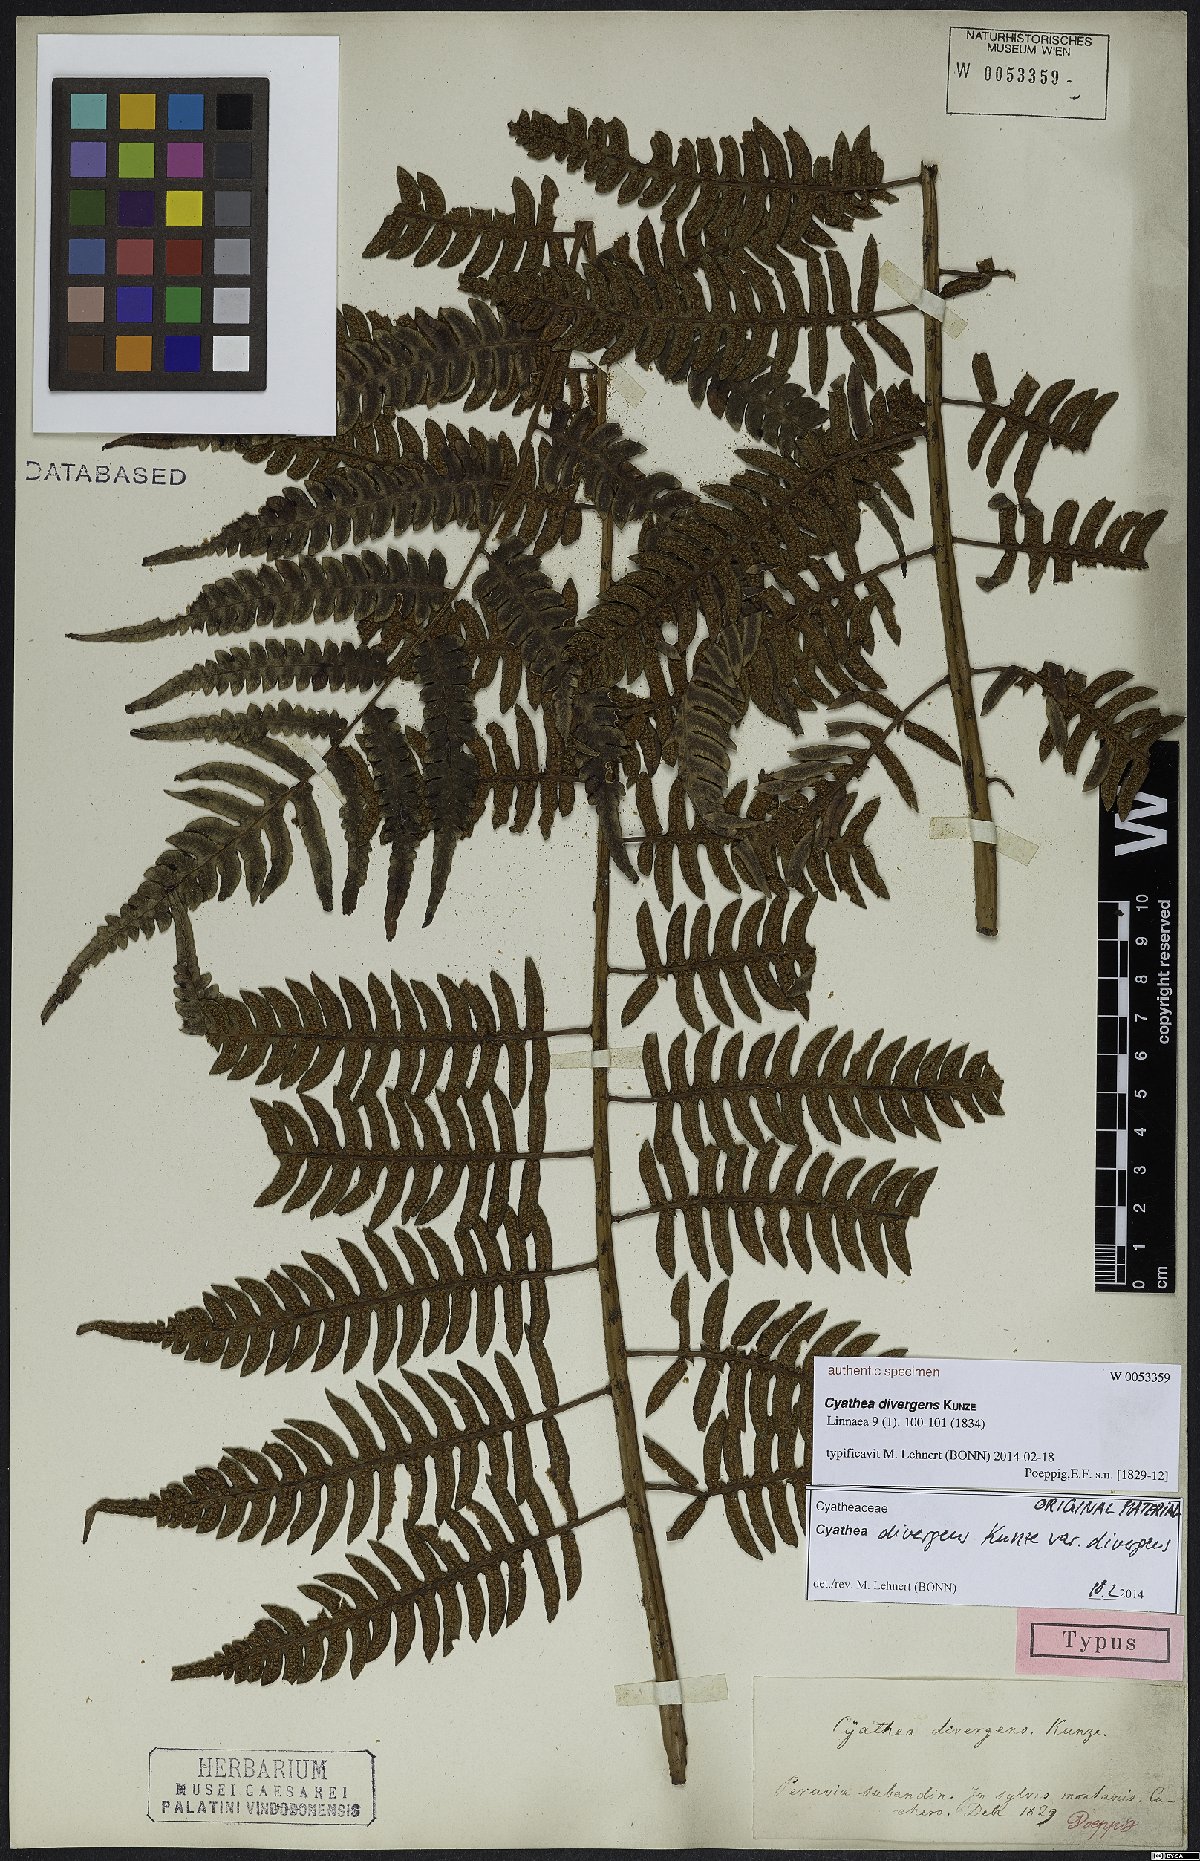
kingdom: Plantae
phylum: Tracheophyta
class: Polypodiopsida
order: Cyatheales
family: Cyatheaceae
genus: Cyathea
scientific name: Cyathea divergens
